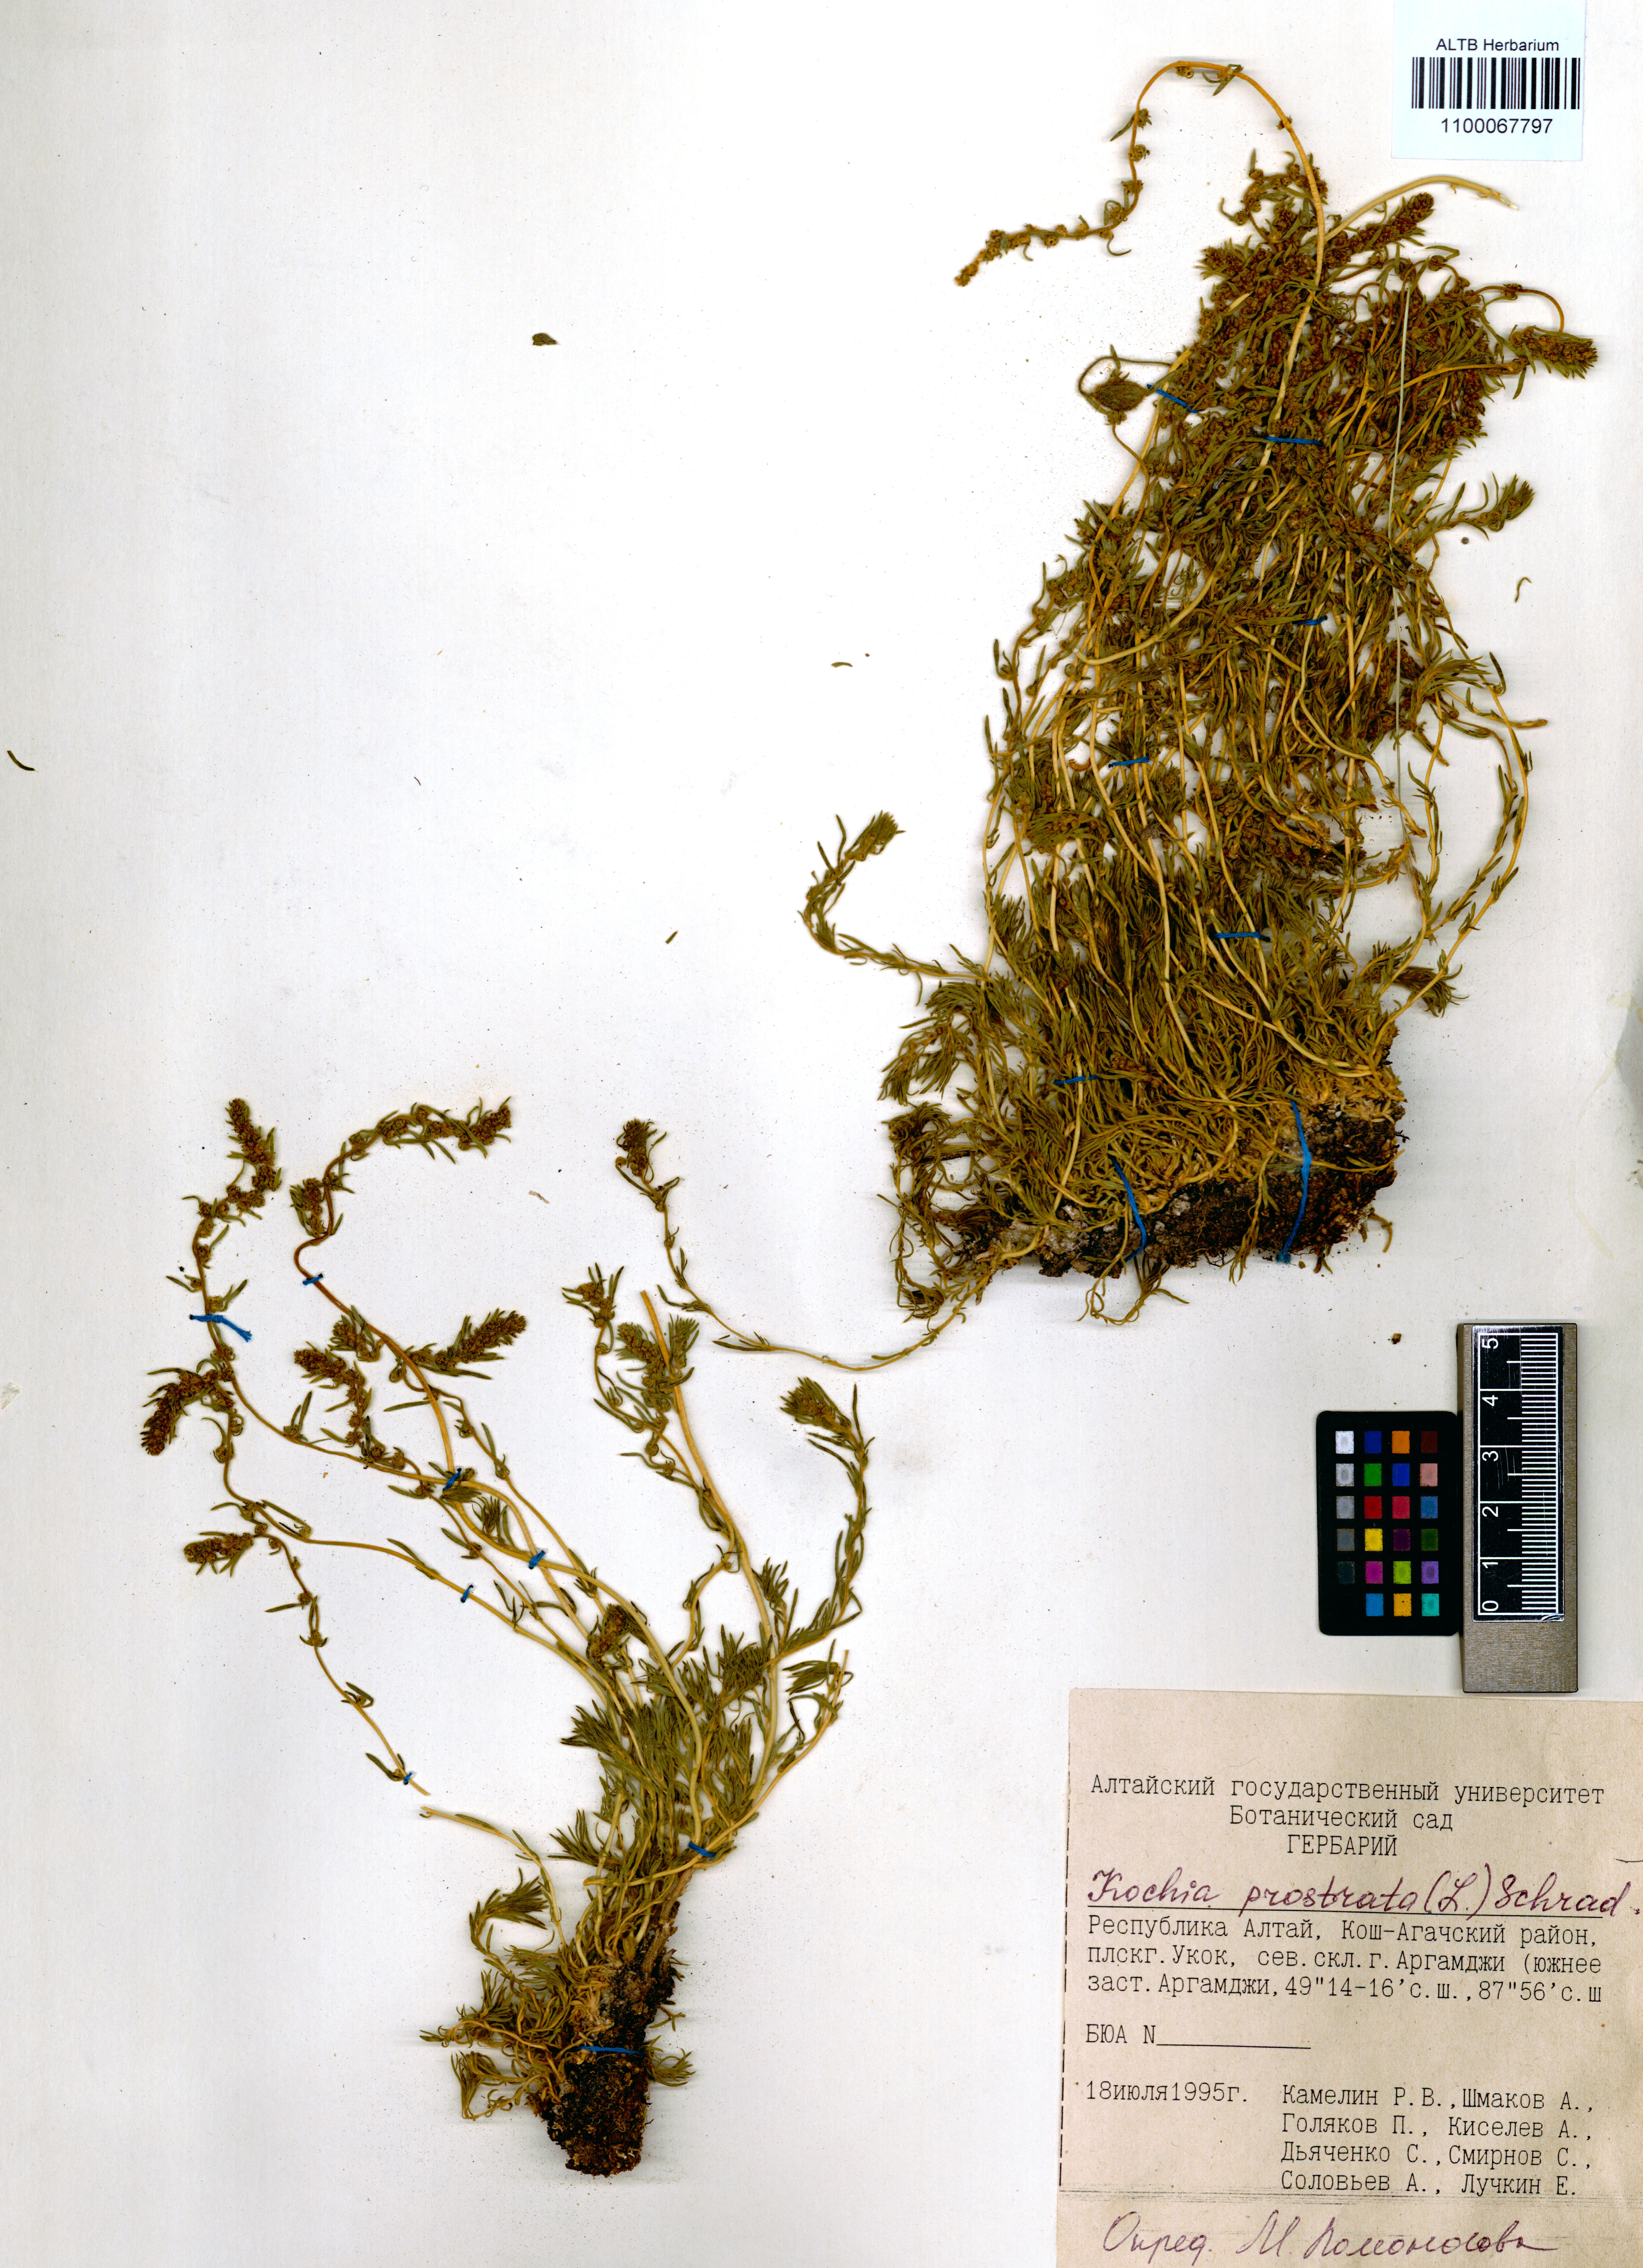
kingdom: Plantae
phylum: Tracheophyta
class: Magnoliopsida
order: Caryophyllales
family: Amaranthaceae
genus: Bassia
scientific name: Bassia prostrata
